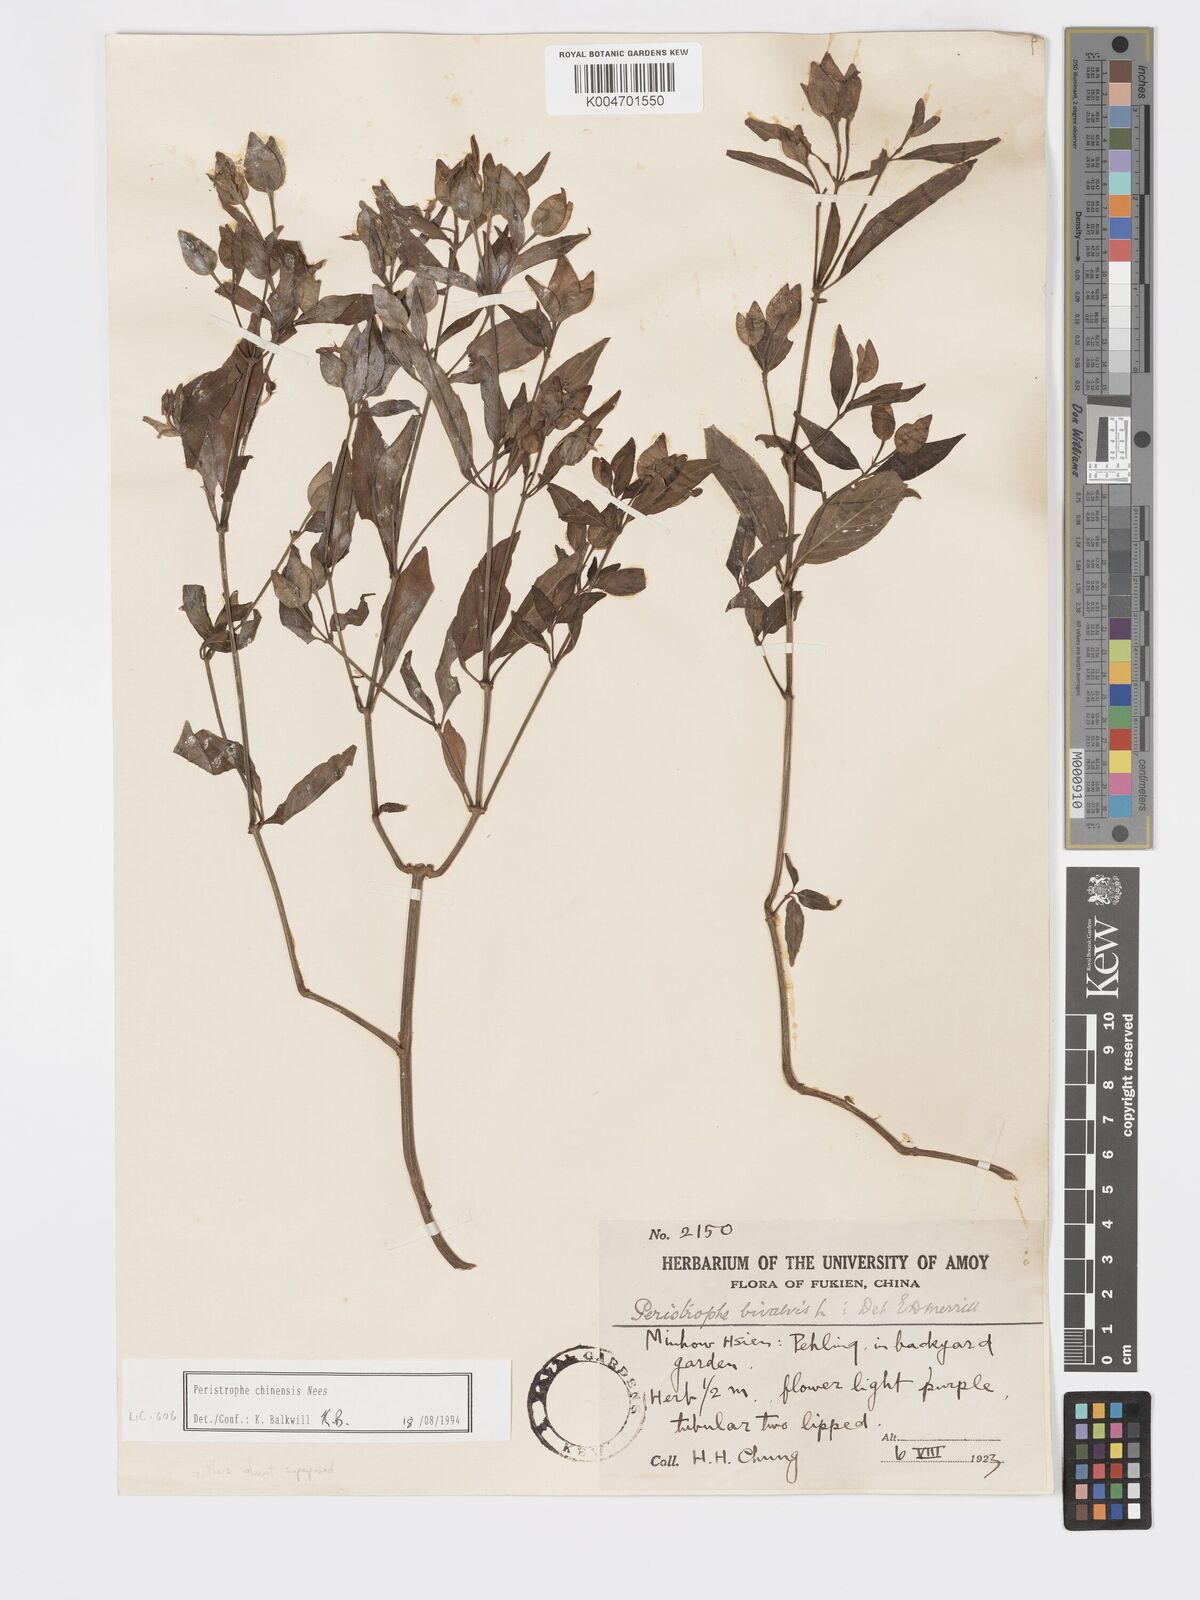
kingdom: Plantae
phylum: Tracheophyta
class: Magnoliopsida
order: Lamiales
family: Acanthaceae
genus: Dicliptera
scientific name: Dicliptera chinensis
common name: Chinese foldwing
